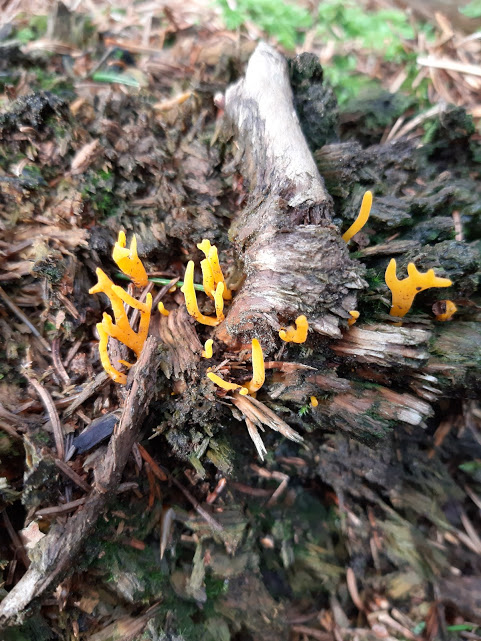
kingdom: Fungi
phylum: Basidiomycota
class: Dacrymycetes
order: Dacrymycetales
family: Dacrymycetaceae
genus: Calocera
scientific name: Calocera viscosa
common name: almindelig guldgaffel
